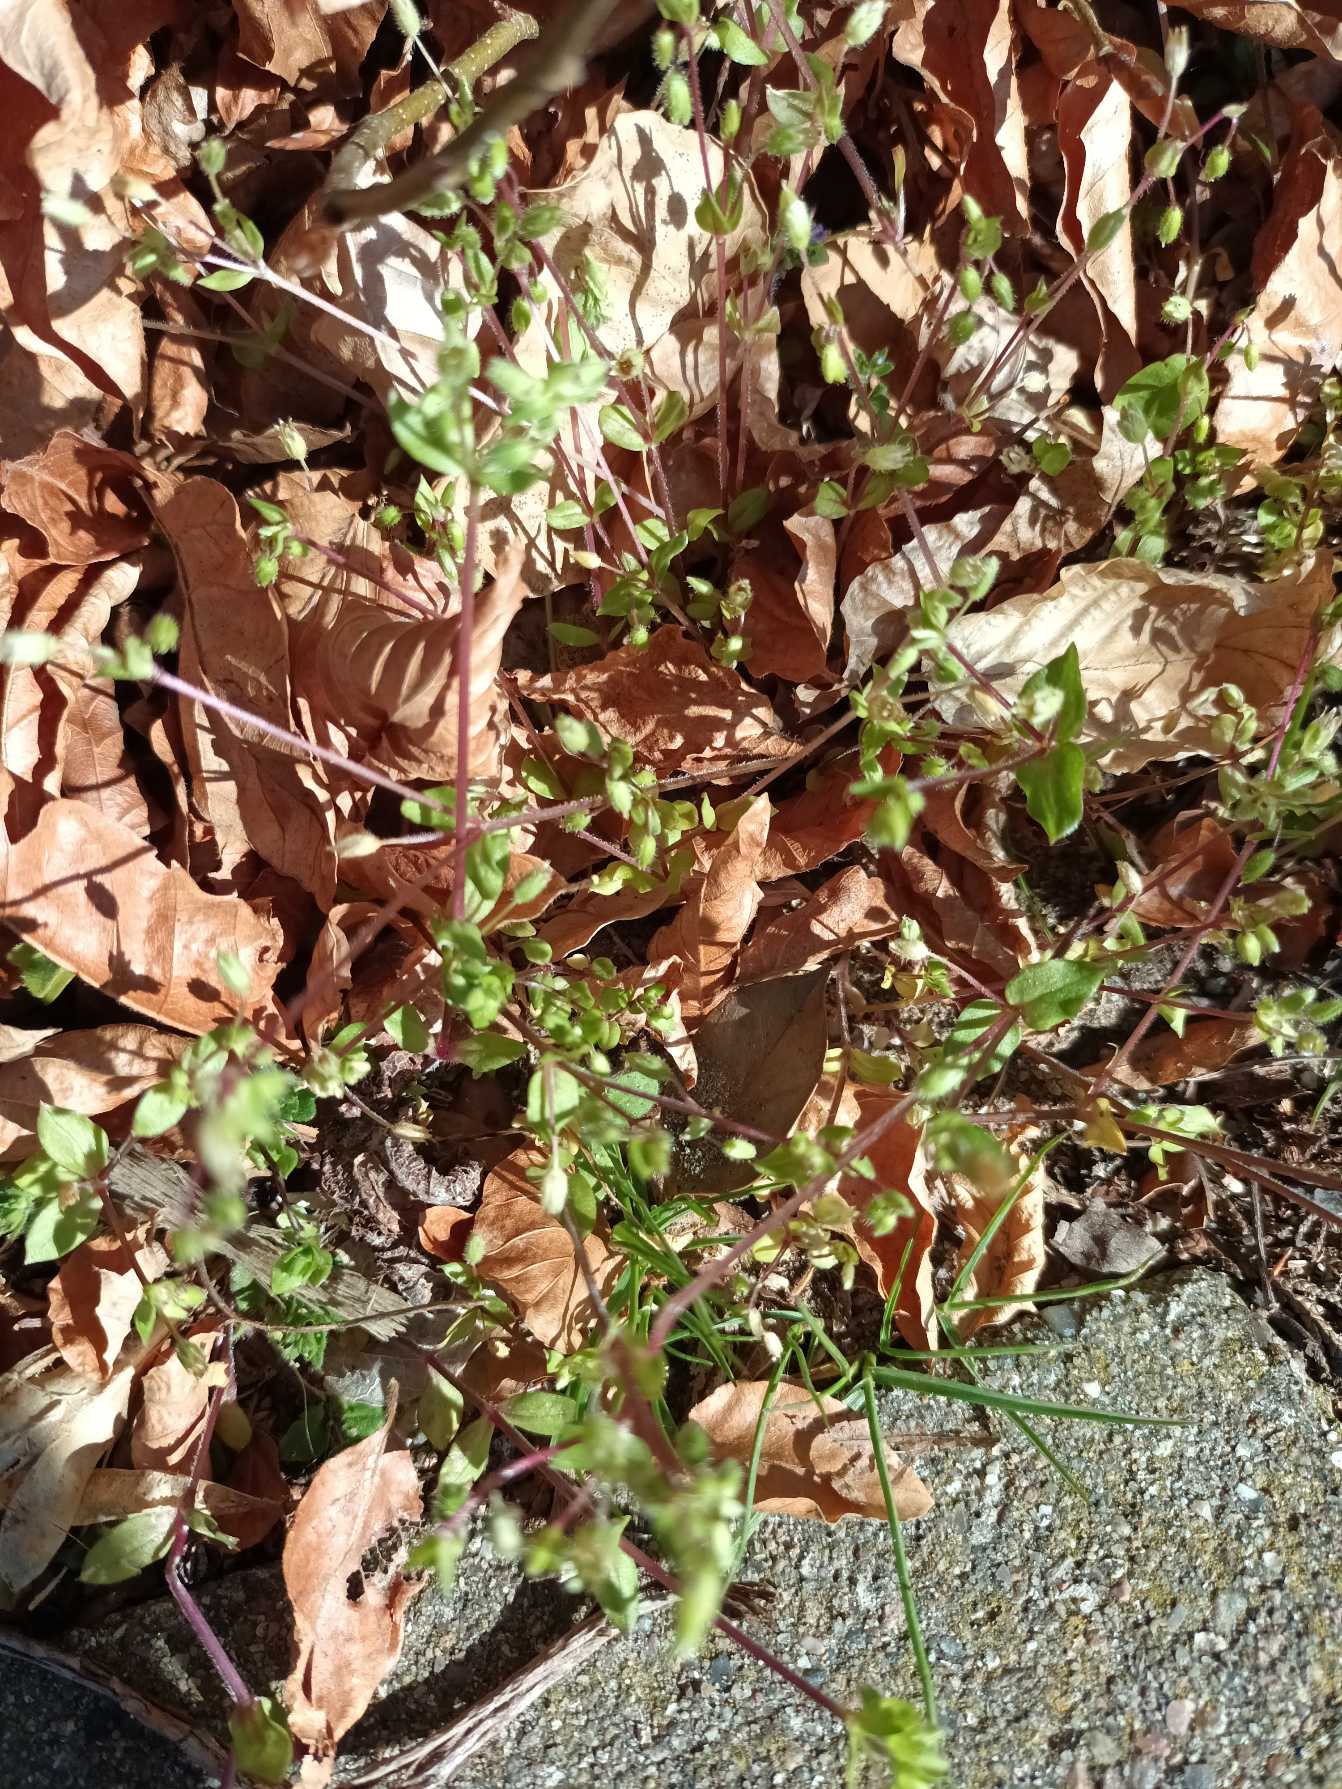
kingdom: Plantae
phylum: Tracheophyta
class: Magnoliopsida
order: Caryophyllales
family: Caryophyllaceae
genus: Stellaria
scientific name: Stellaria apetala
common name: Bleg fuglegræs
